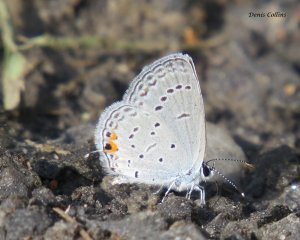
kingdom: Animalia
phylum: Arthropoda
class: Insecta
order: Lepidoptera
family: Lycaenidae
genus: Elkalyce
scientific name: Elkalyce comyntas
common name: Eastern Tailed-Blue
